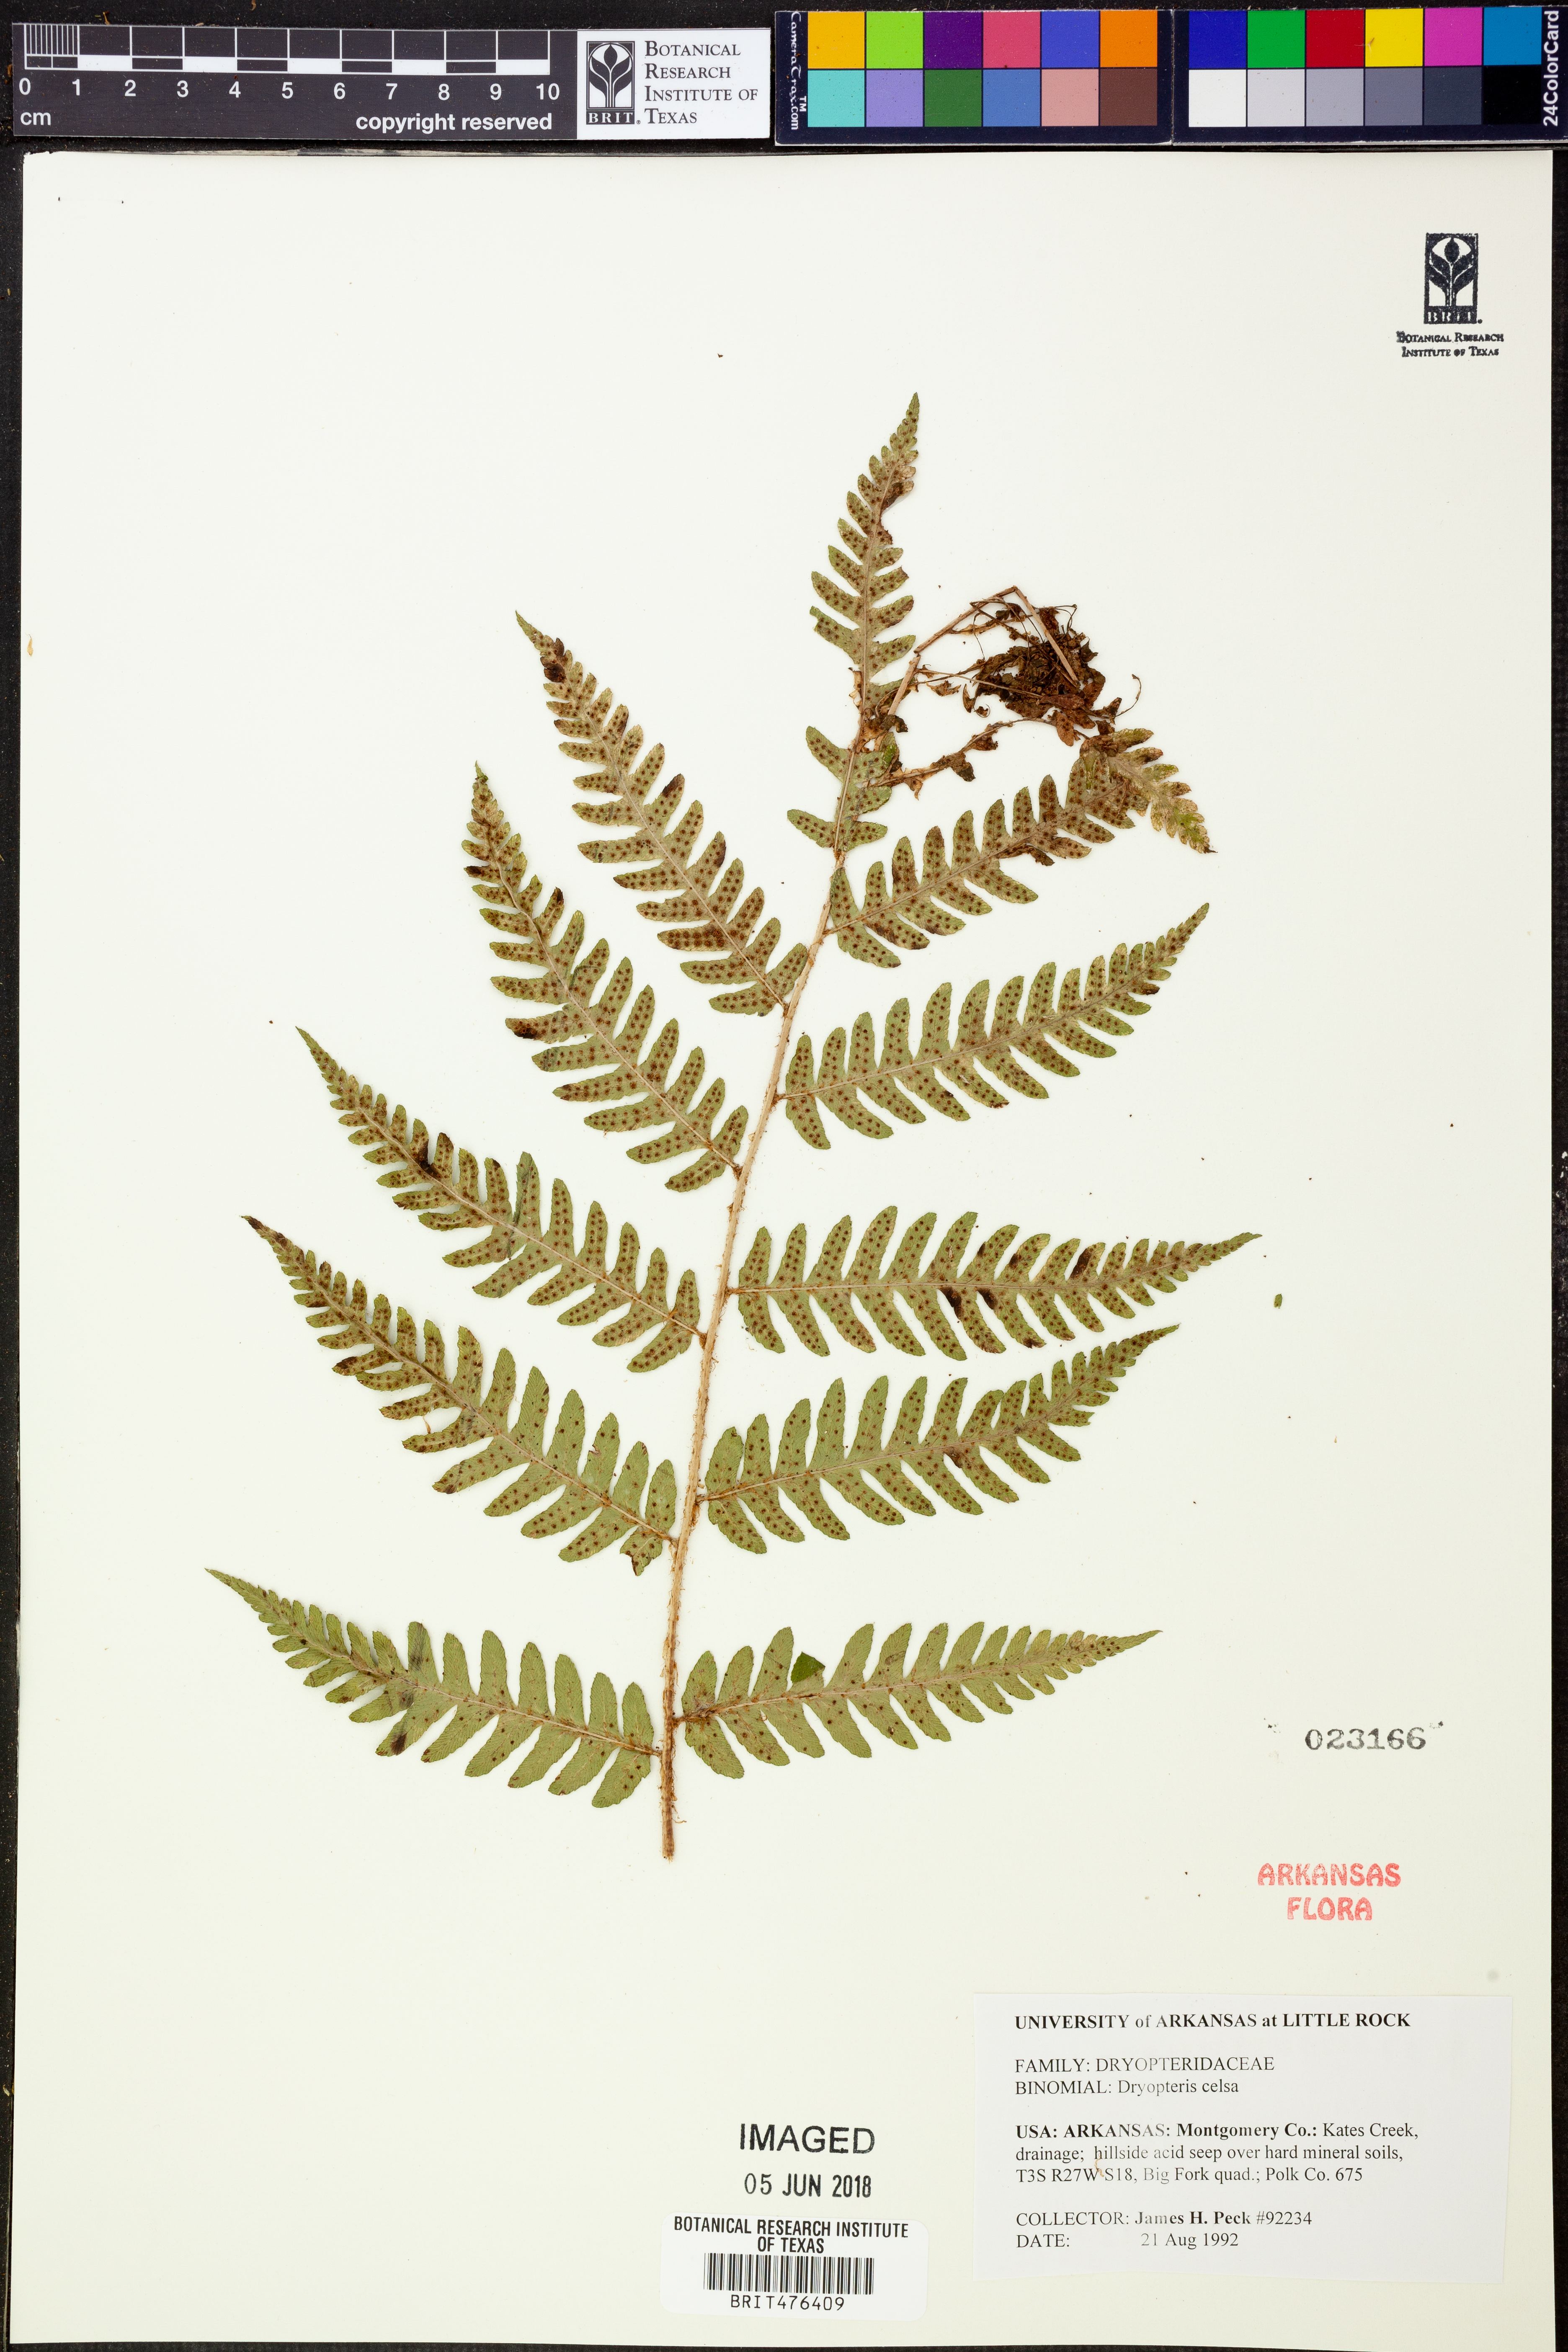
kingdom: Plantae
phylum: Tracheophyta
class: Polypodiopsida
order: Polypodiales
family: Dryopteridaceae
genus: Dryopteris
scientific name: Dryopteris celsa
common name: Log fern
